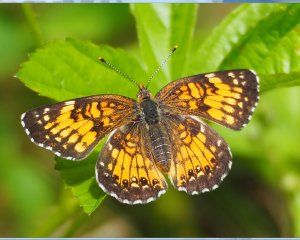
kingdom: Animalia
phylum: Arthropoda
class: Insecta
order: Lepidoptera
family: Nymphalidae
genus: Chlosyne
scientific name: Chlosyne harrisii
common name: Harris's Checkerspot
